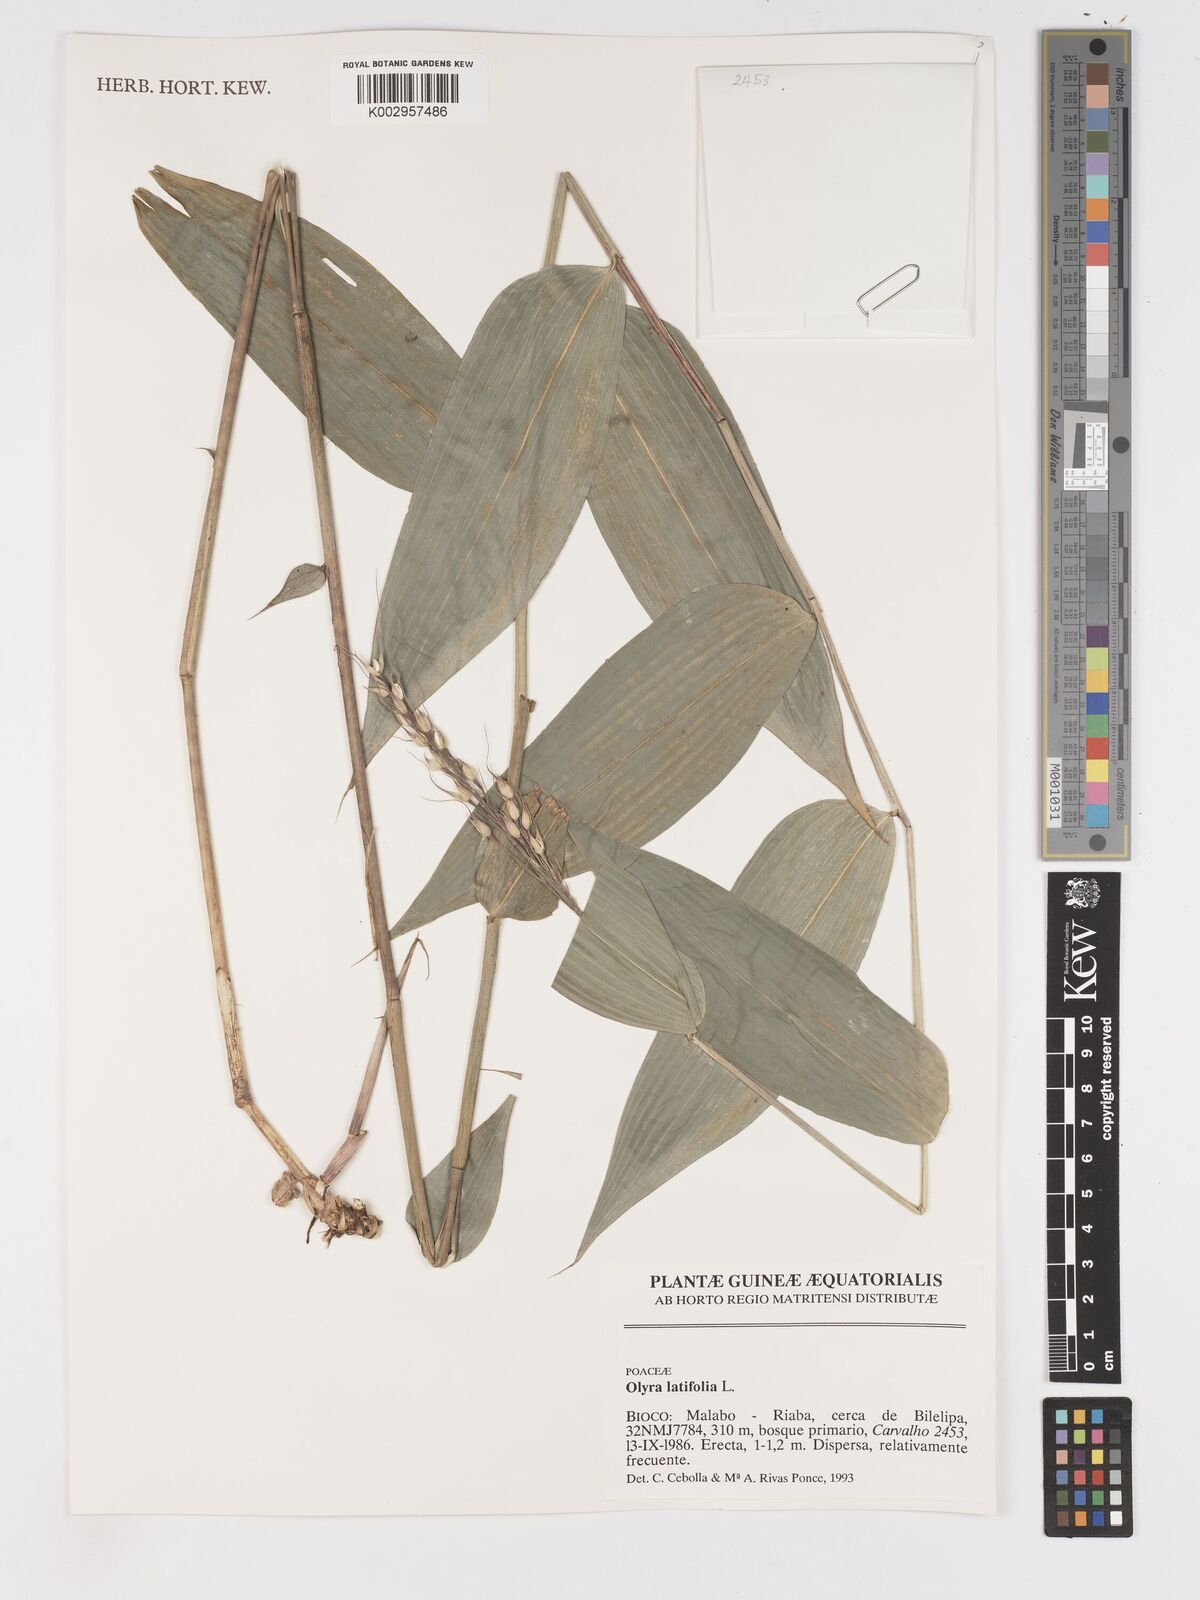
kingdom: Plantae
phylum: Tracheophyta
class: Liliopsida
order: Poales
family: Poaceae
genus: Olyra
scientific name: Olyra latifolia
